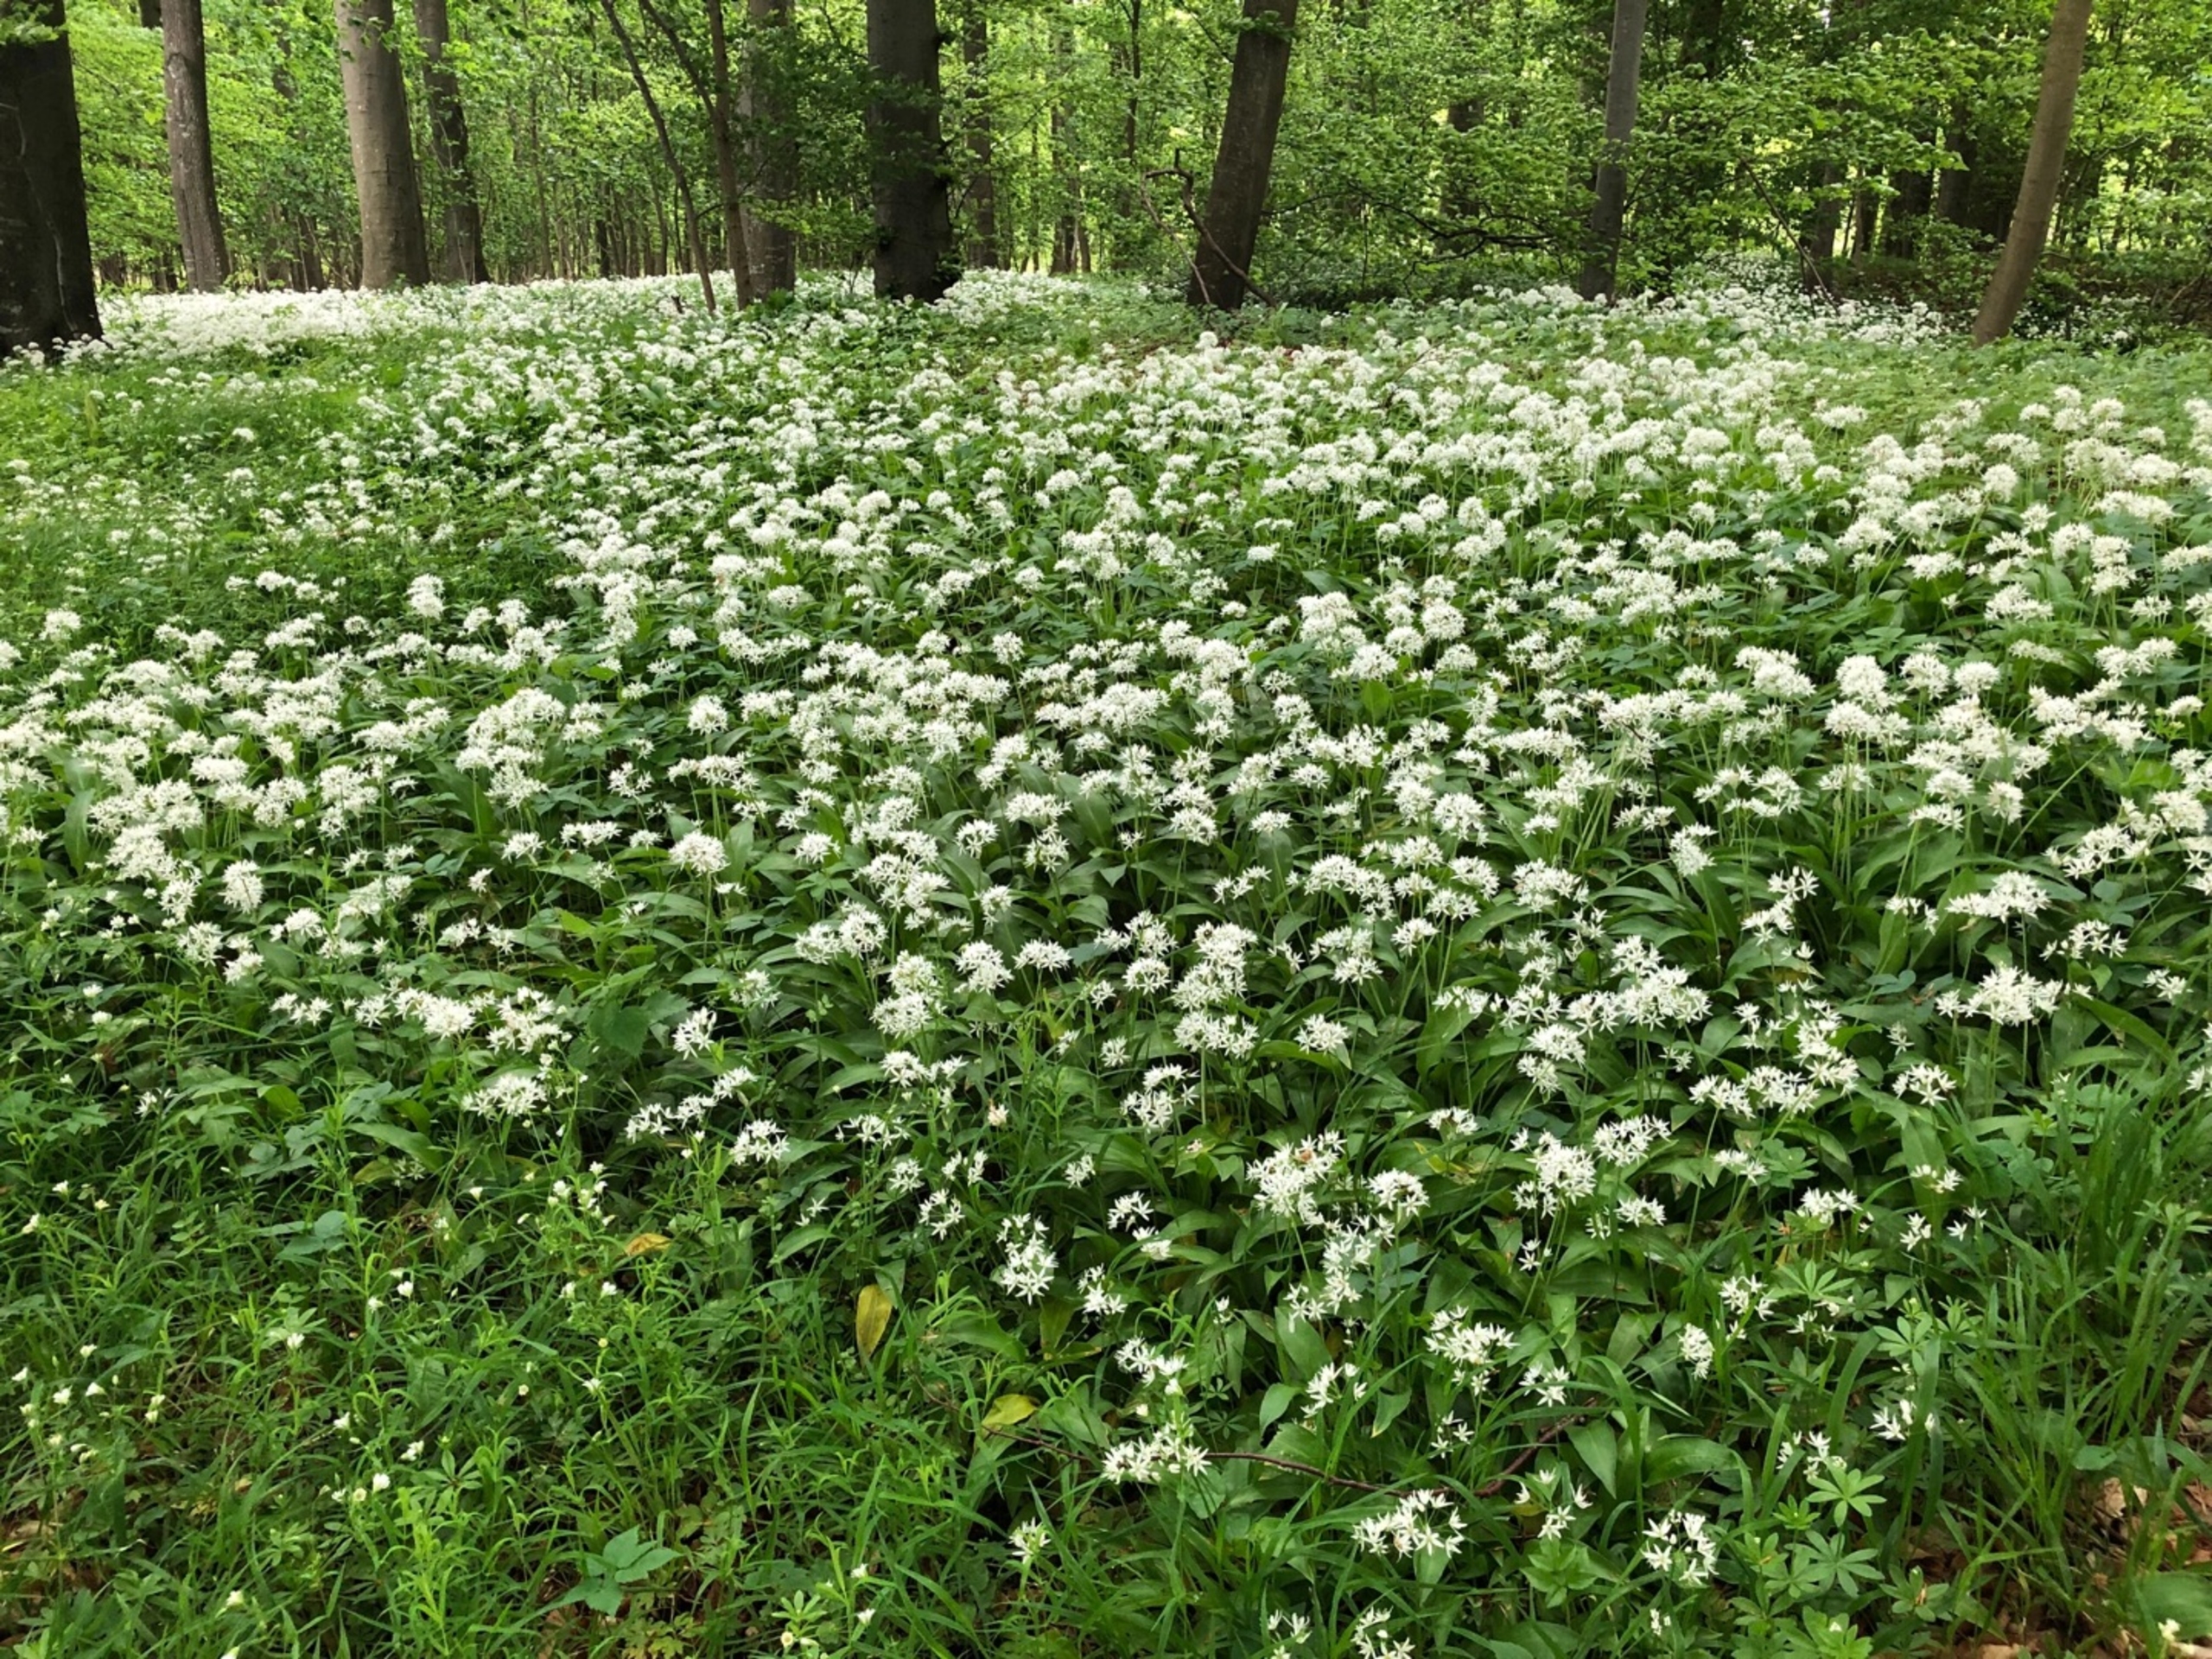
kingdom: Plantae
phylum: Tracheophyta
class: Liliopsida
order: Asparagales
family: Amaryllidaceae
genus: Allium
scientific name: Allium ursinum
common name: Rams-løg
